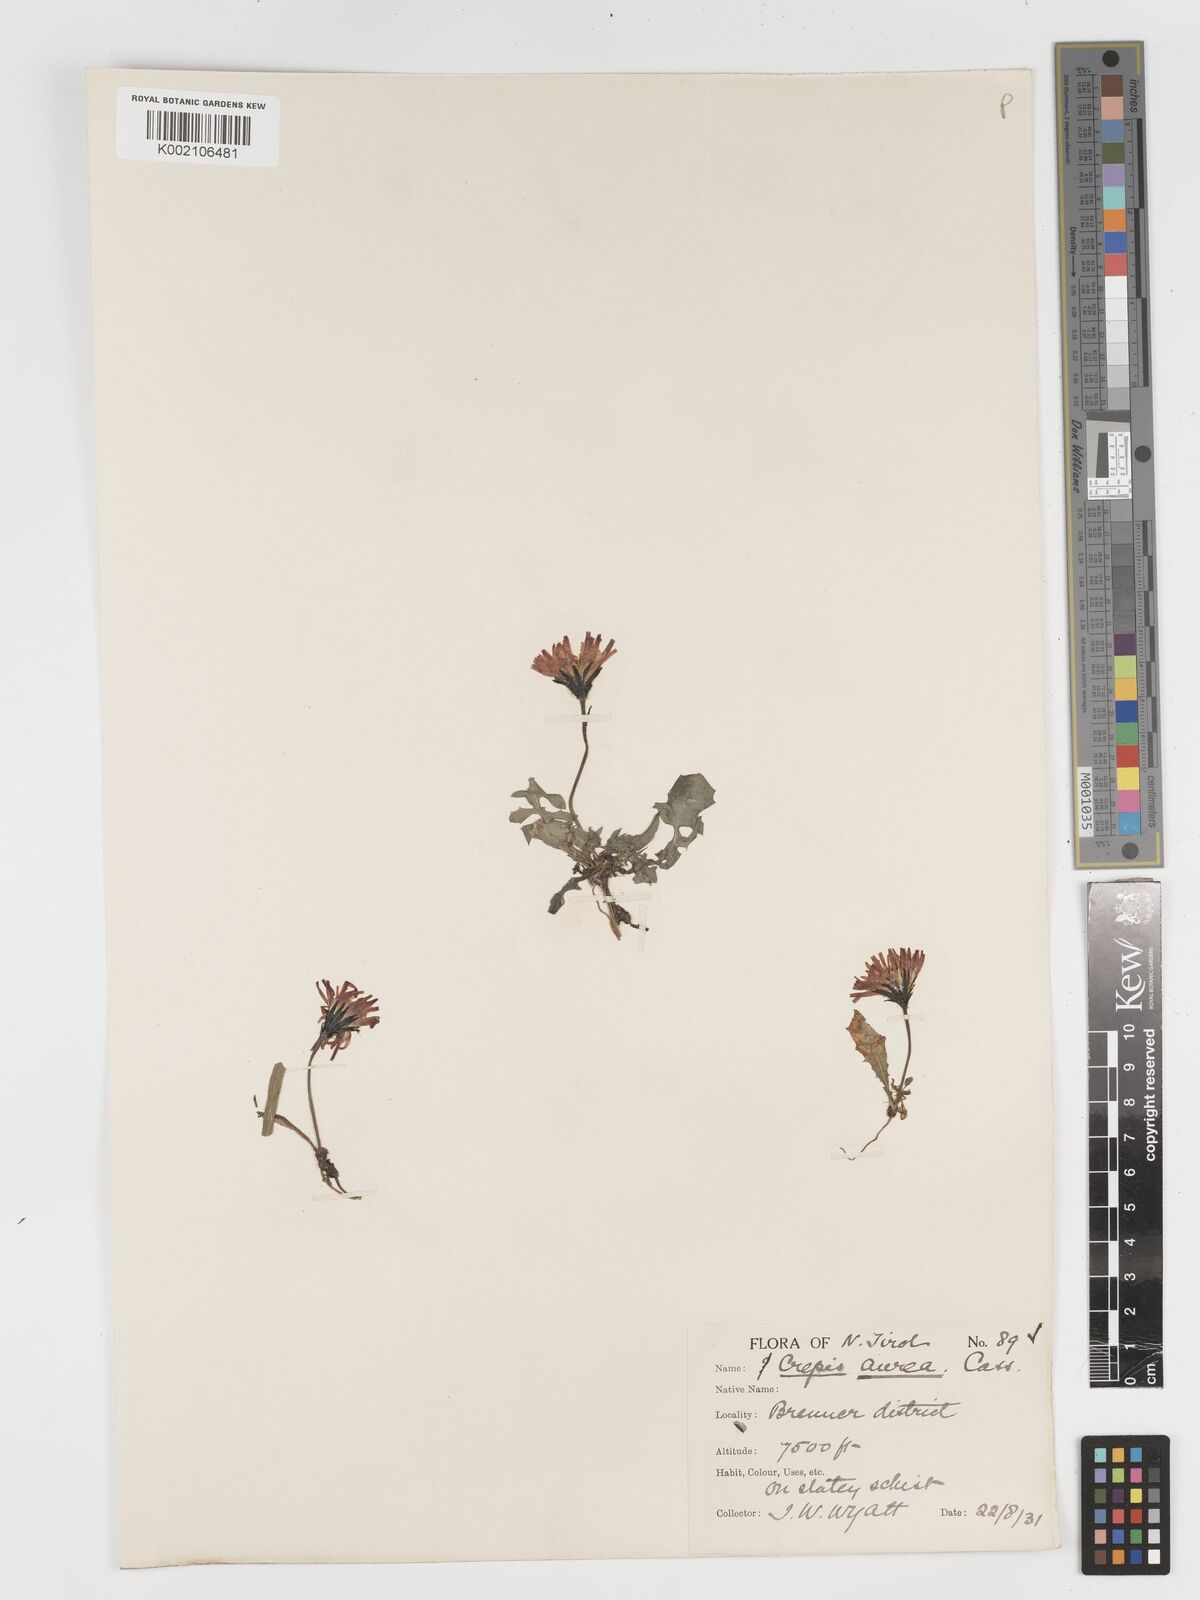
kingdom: Plantae
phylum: Tracheophyta
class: Magnoliopsida
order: Asterales
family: Asteraceae
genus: Crepis
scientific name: Crepis aurea
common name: Golden hawk's-beard
